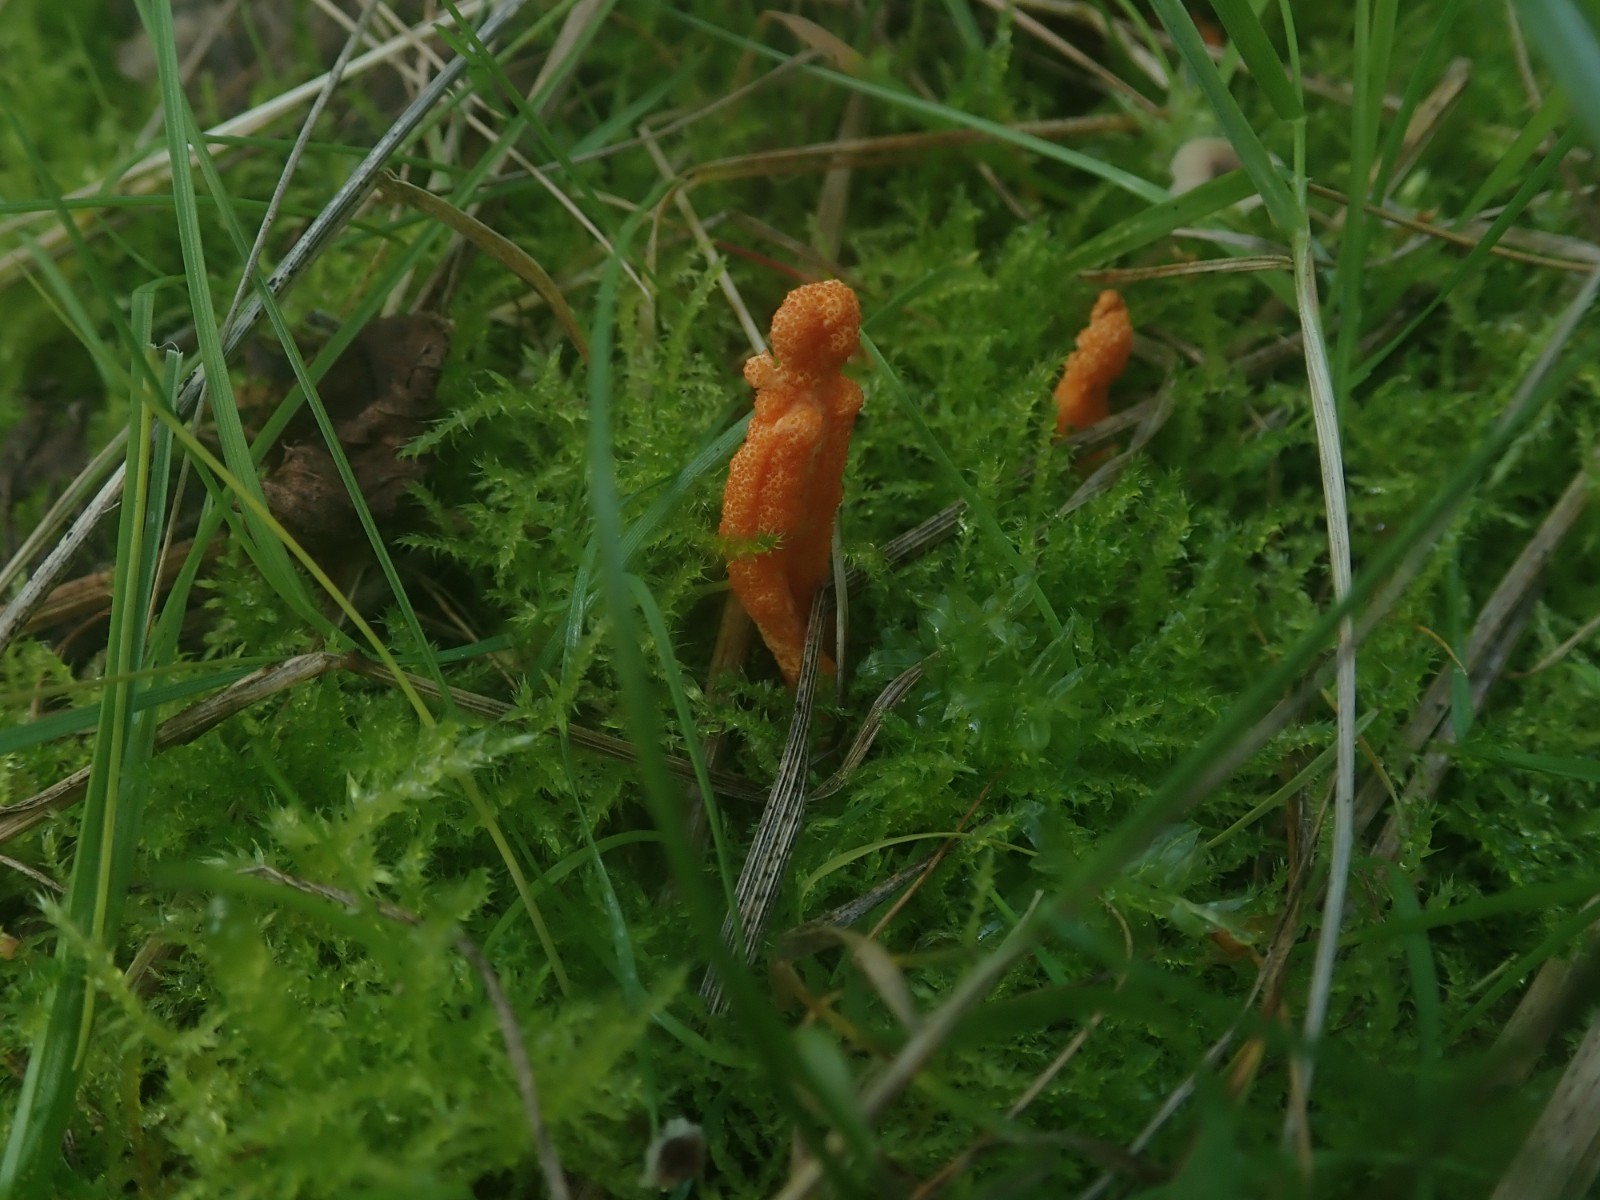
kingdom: Fungi
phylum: Ascomycota
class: Sordariomycetes
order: Hypocreales
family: Cordycipitaceae
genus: Cordyceps
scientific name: Cordyceps militaris
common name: puppe-snyltekølle
